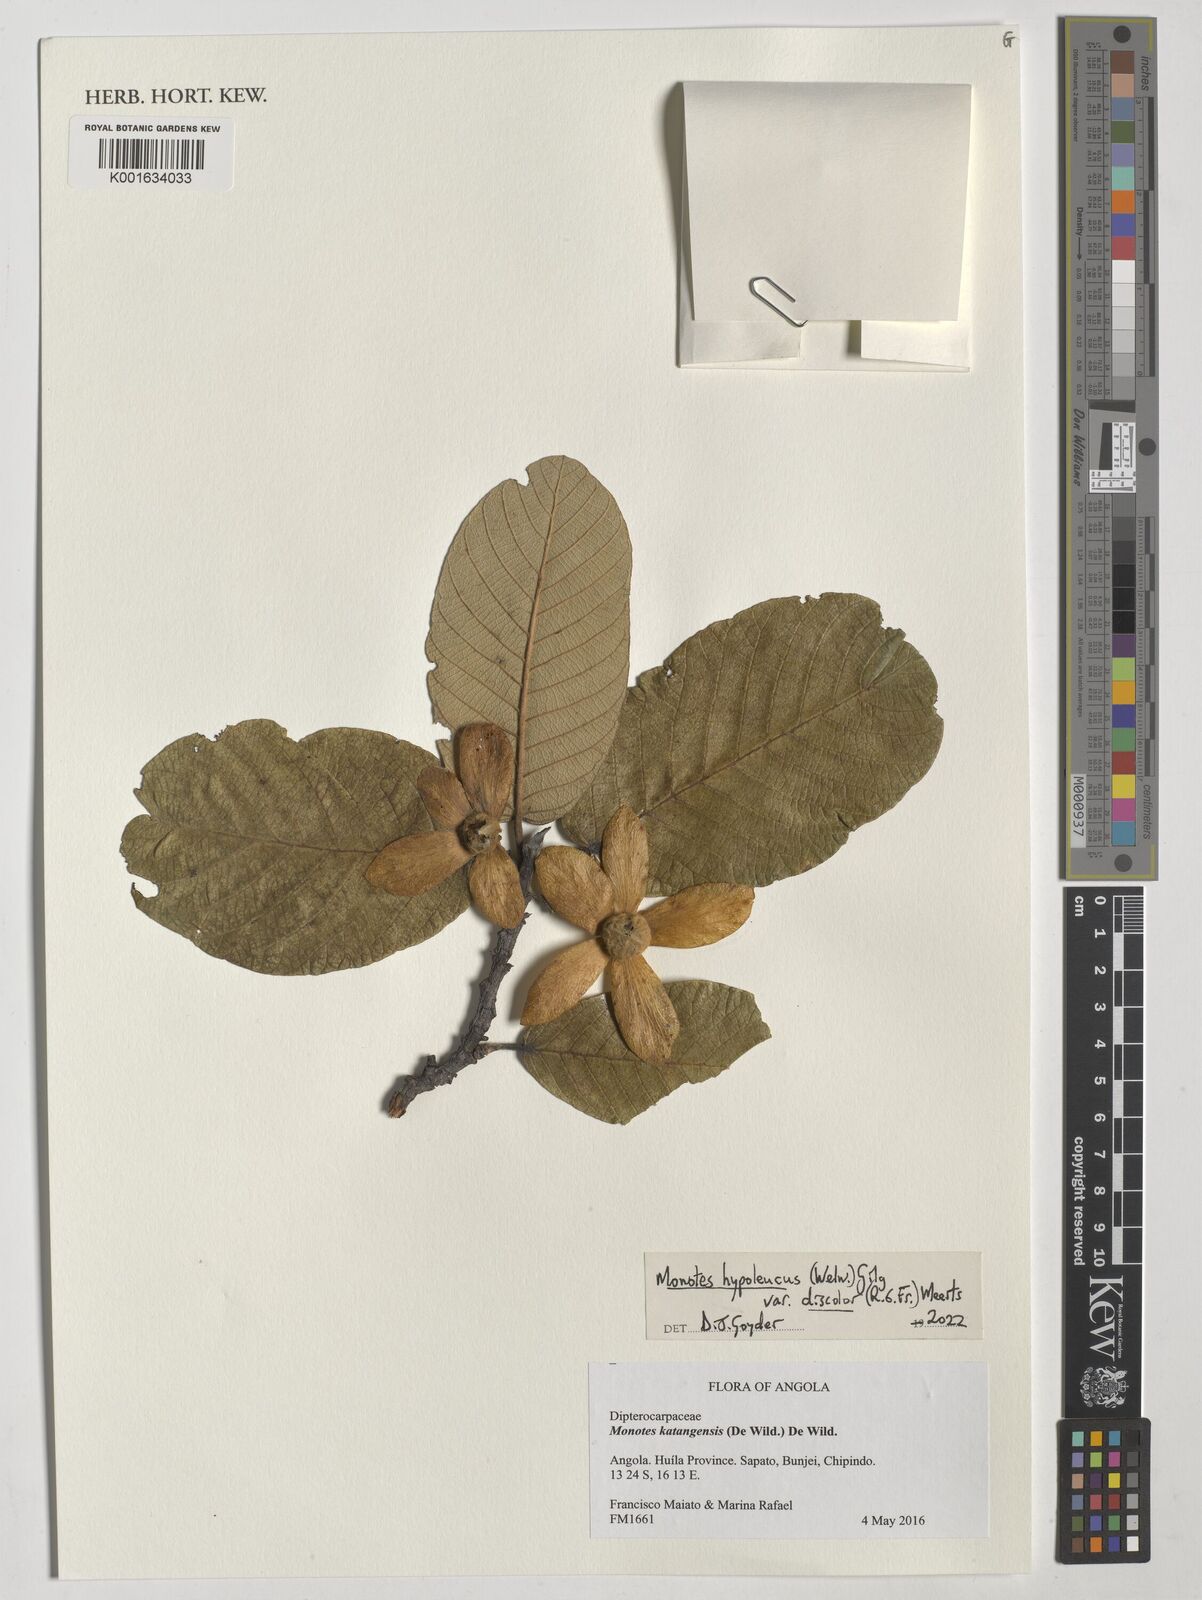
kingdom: Plantae
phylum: Tracheophyta
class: Magnoliopsida
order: Malvales
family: Dipterocarpaceae
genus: Monotes
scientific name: Monotes hypoleucus
